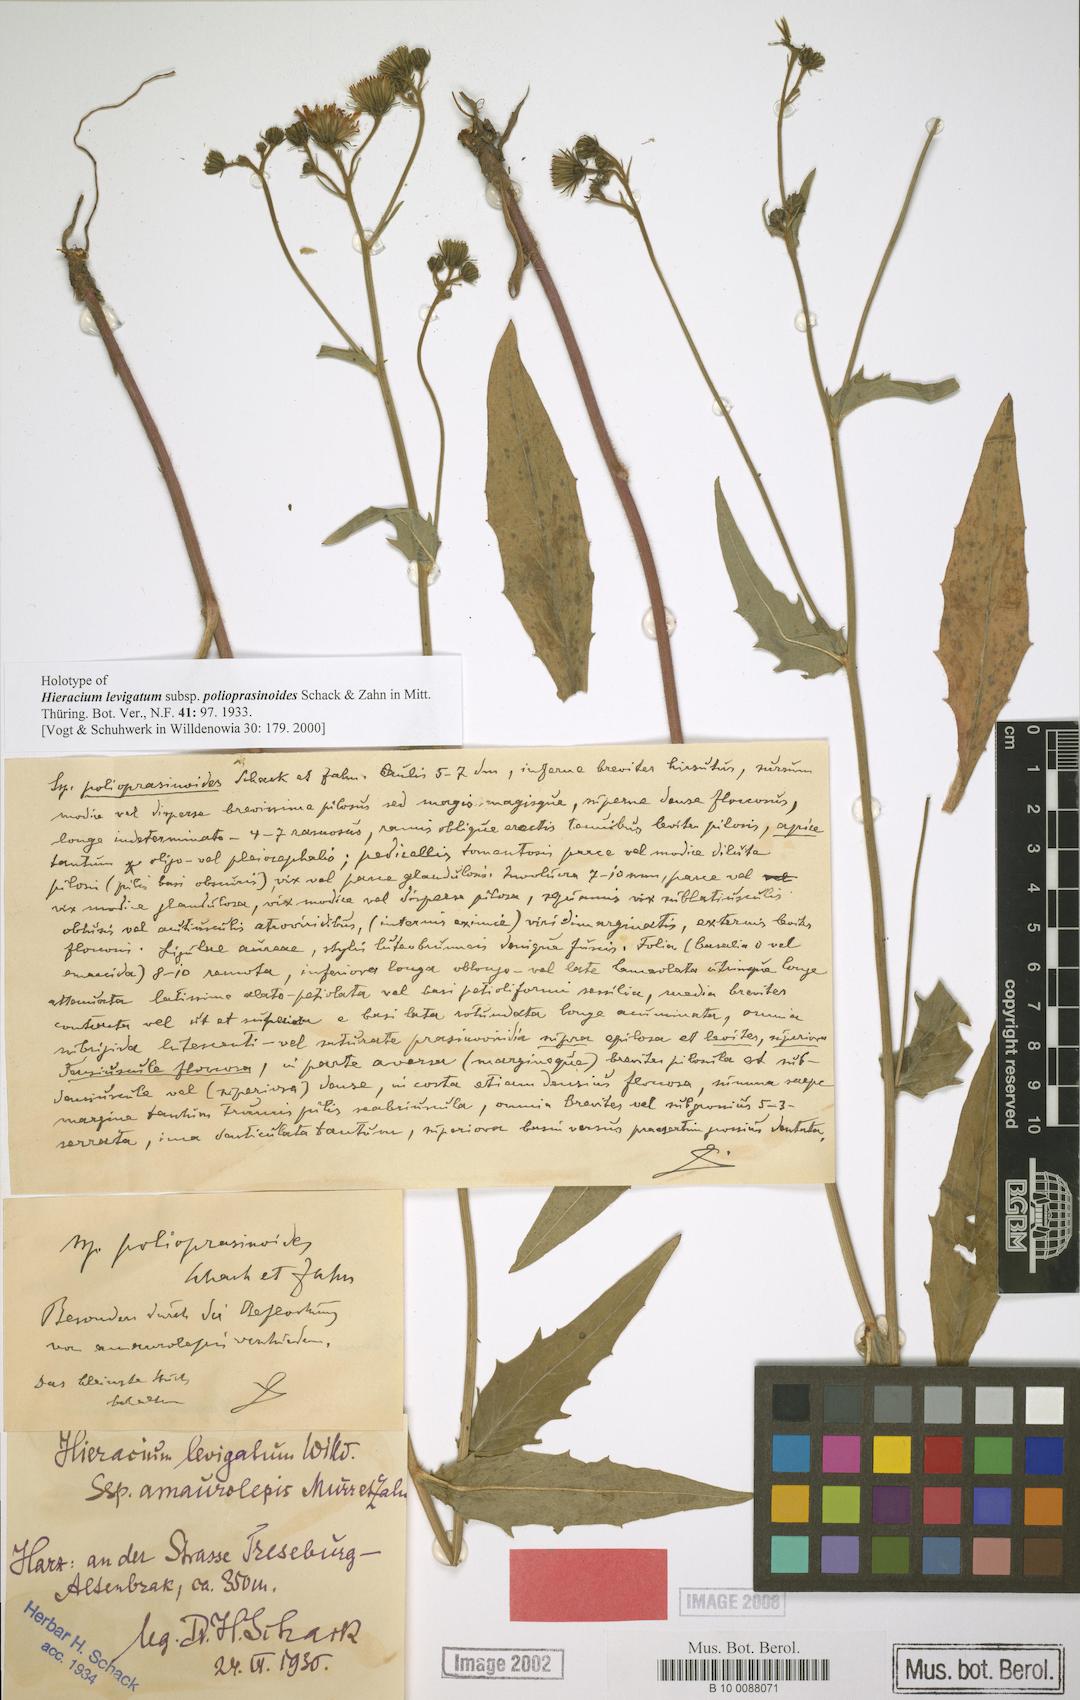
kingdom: Plantae
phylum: Tracheophyta
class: Magnoliopsida
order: Asterales
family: Asteraceae
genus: Hieracium
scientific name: Hieracium laevigatum
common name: Smooth hawkweed
